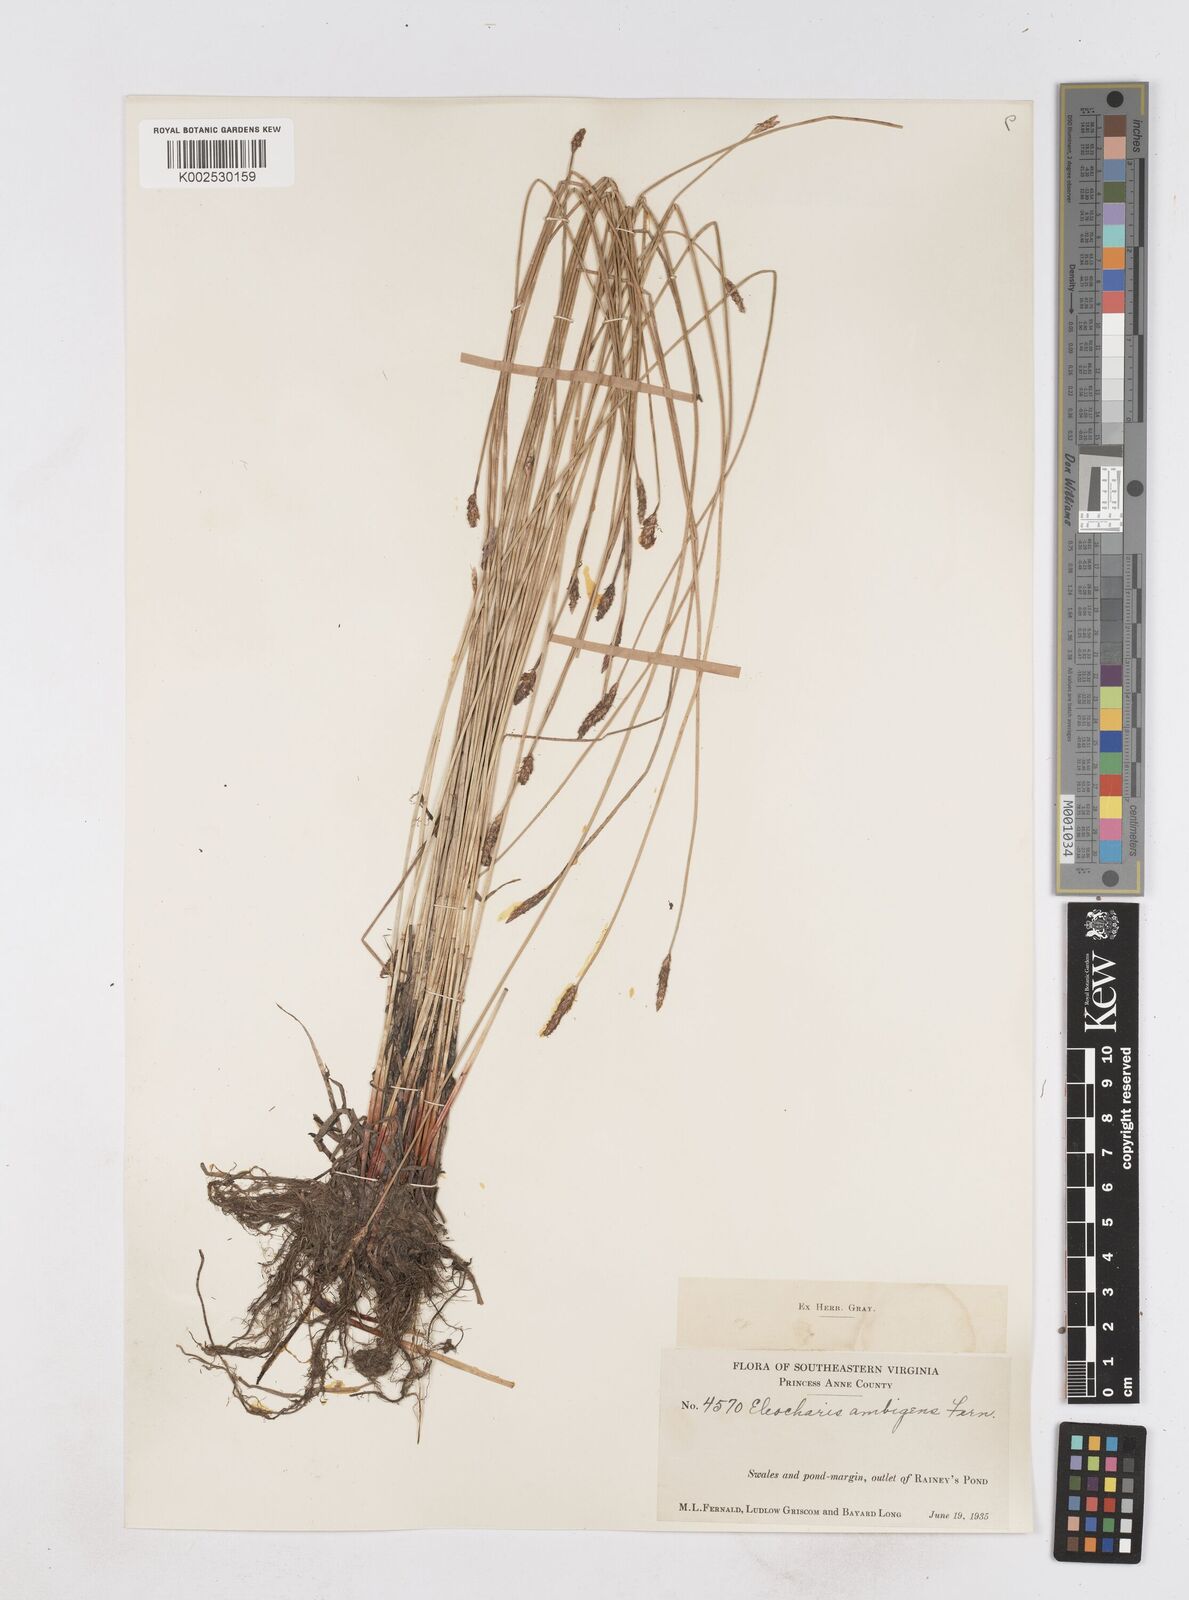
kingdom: Plantae
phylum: Tracheophyta
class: Liliopsida
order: Poales
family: Cyperaceae
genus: Eleocharis
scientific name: Eleocharis fallax
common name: Creeping spikerush
